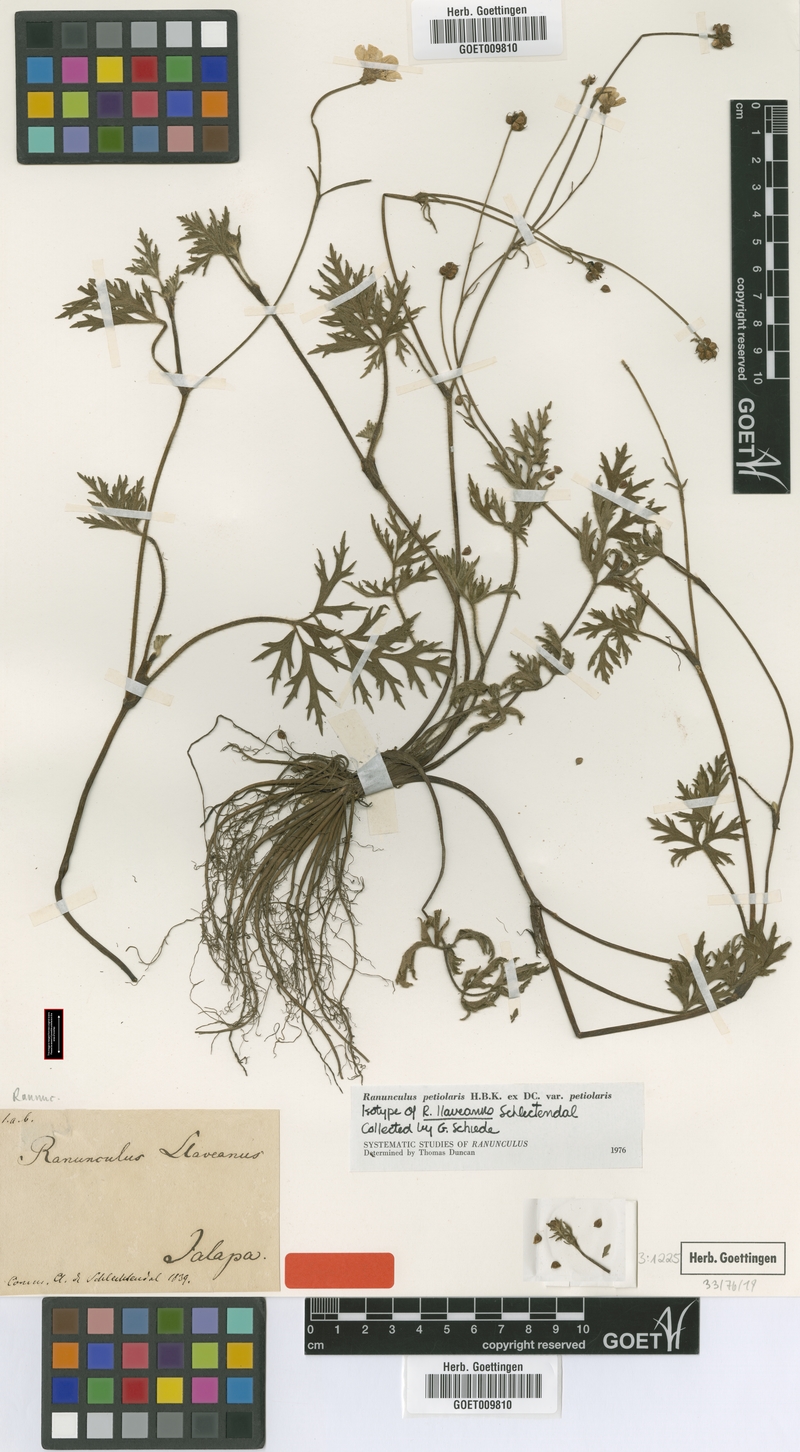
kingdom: Plantae
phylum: Tracheophyta
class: Magnoliopsida
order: Ranunculales
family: Ranunculaceae
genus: Ranunculus
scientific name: Ranunculus petiolaris
